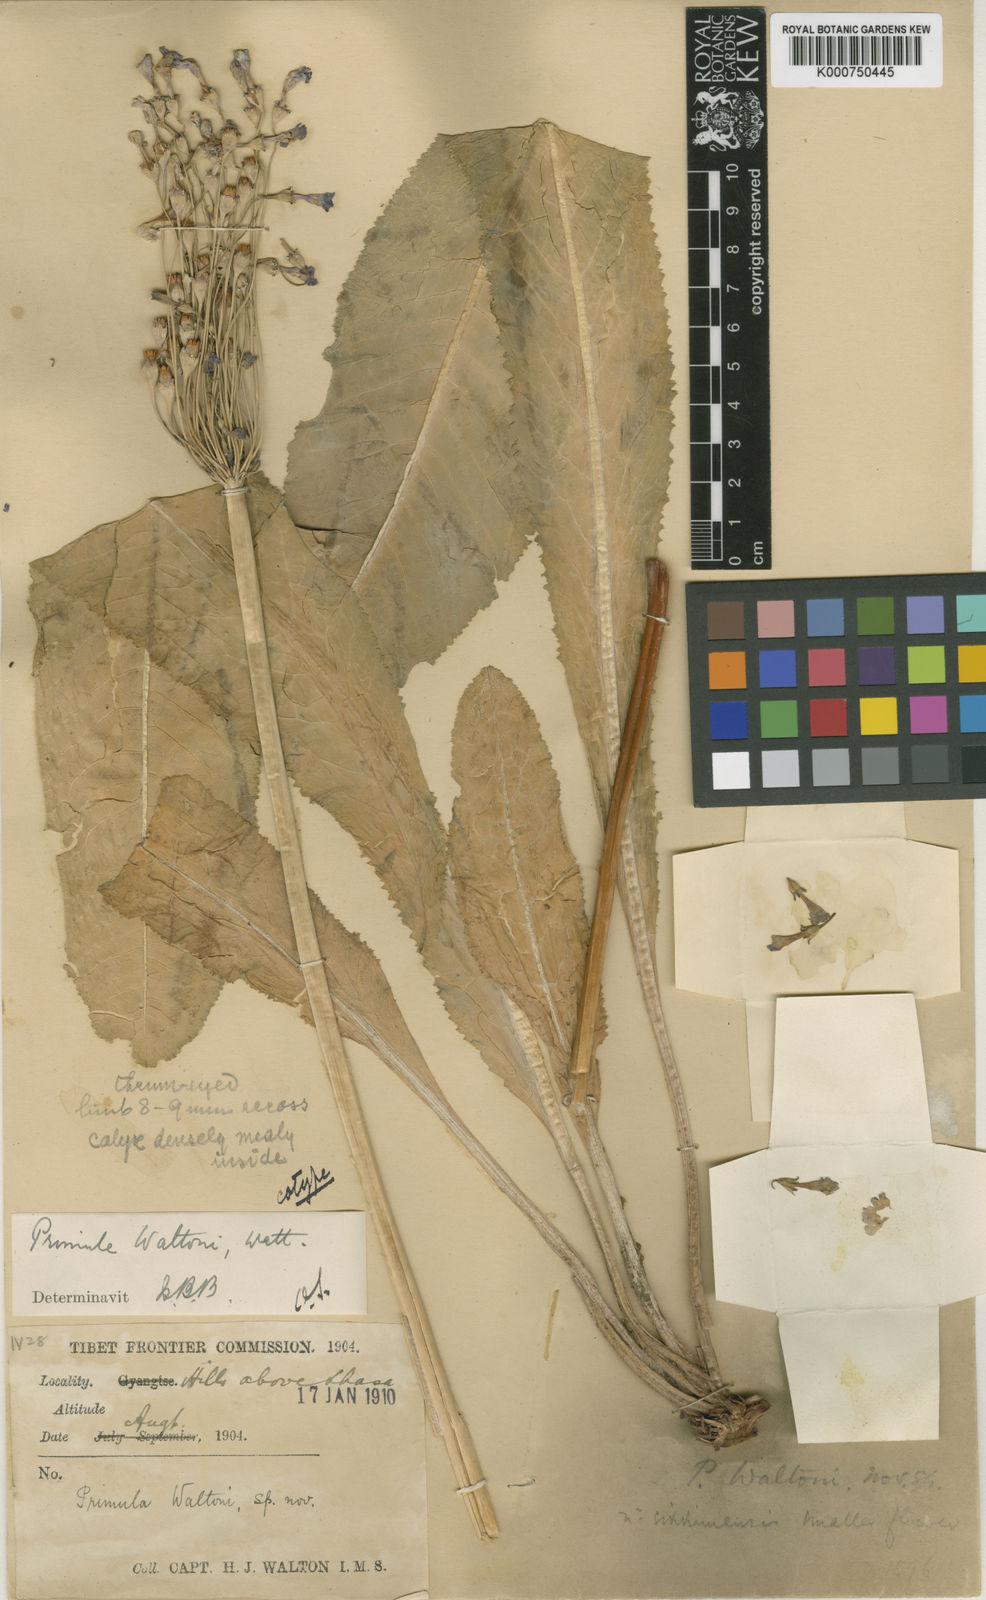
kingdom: Plantae
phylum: Tracheophyta
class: Magnoliopsida
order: Ericales
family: Primulaceae
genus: Primula
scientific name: Primula waltonii
